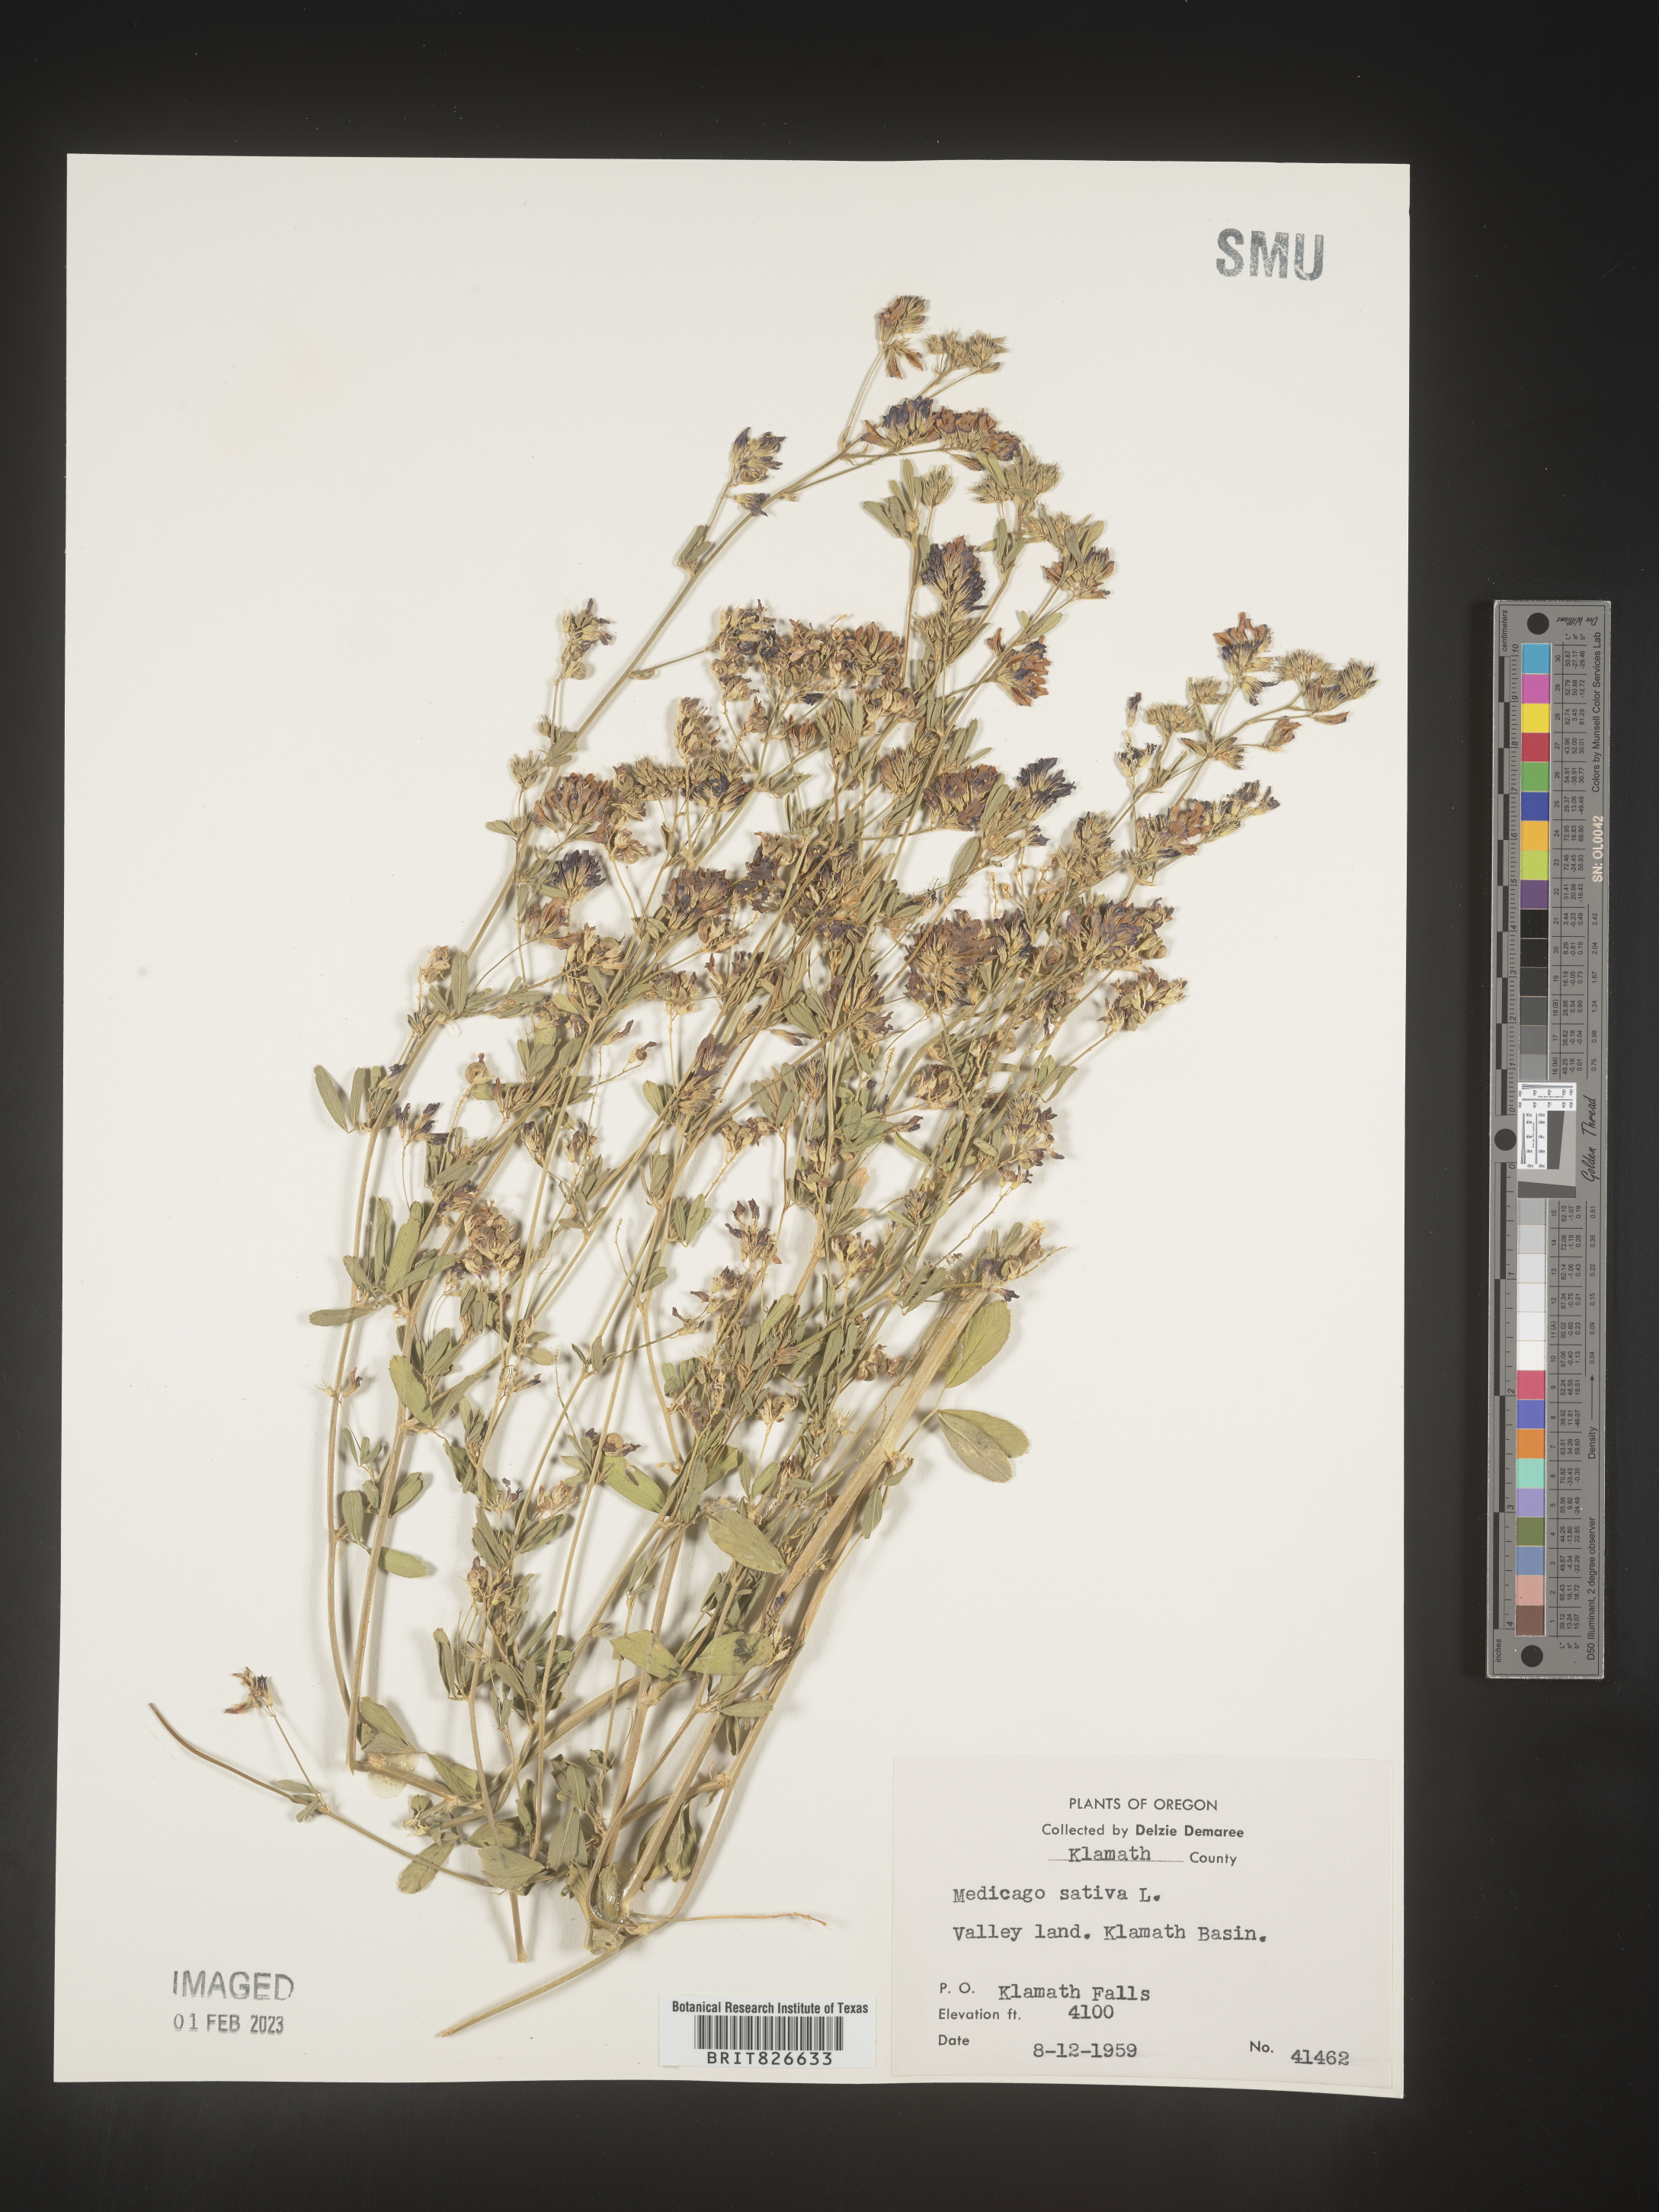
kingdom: Plantae
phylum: Tracheophyta
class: Magnoliopsida
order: Fabales
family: Fabaceae
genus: Medicago
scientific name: Medicago sativa
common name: Alfalfa
